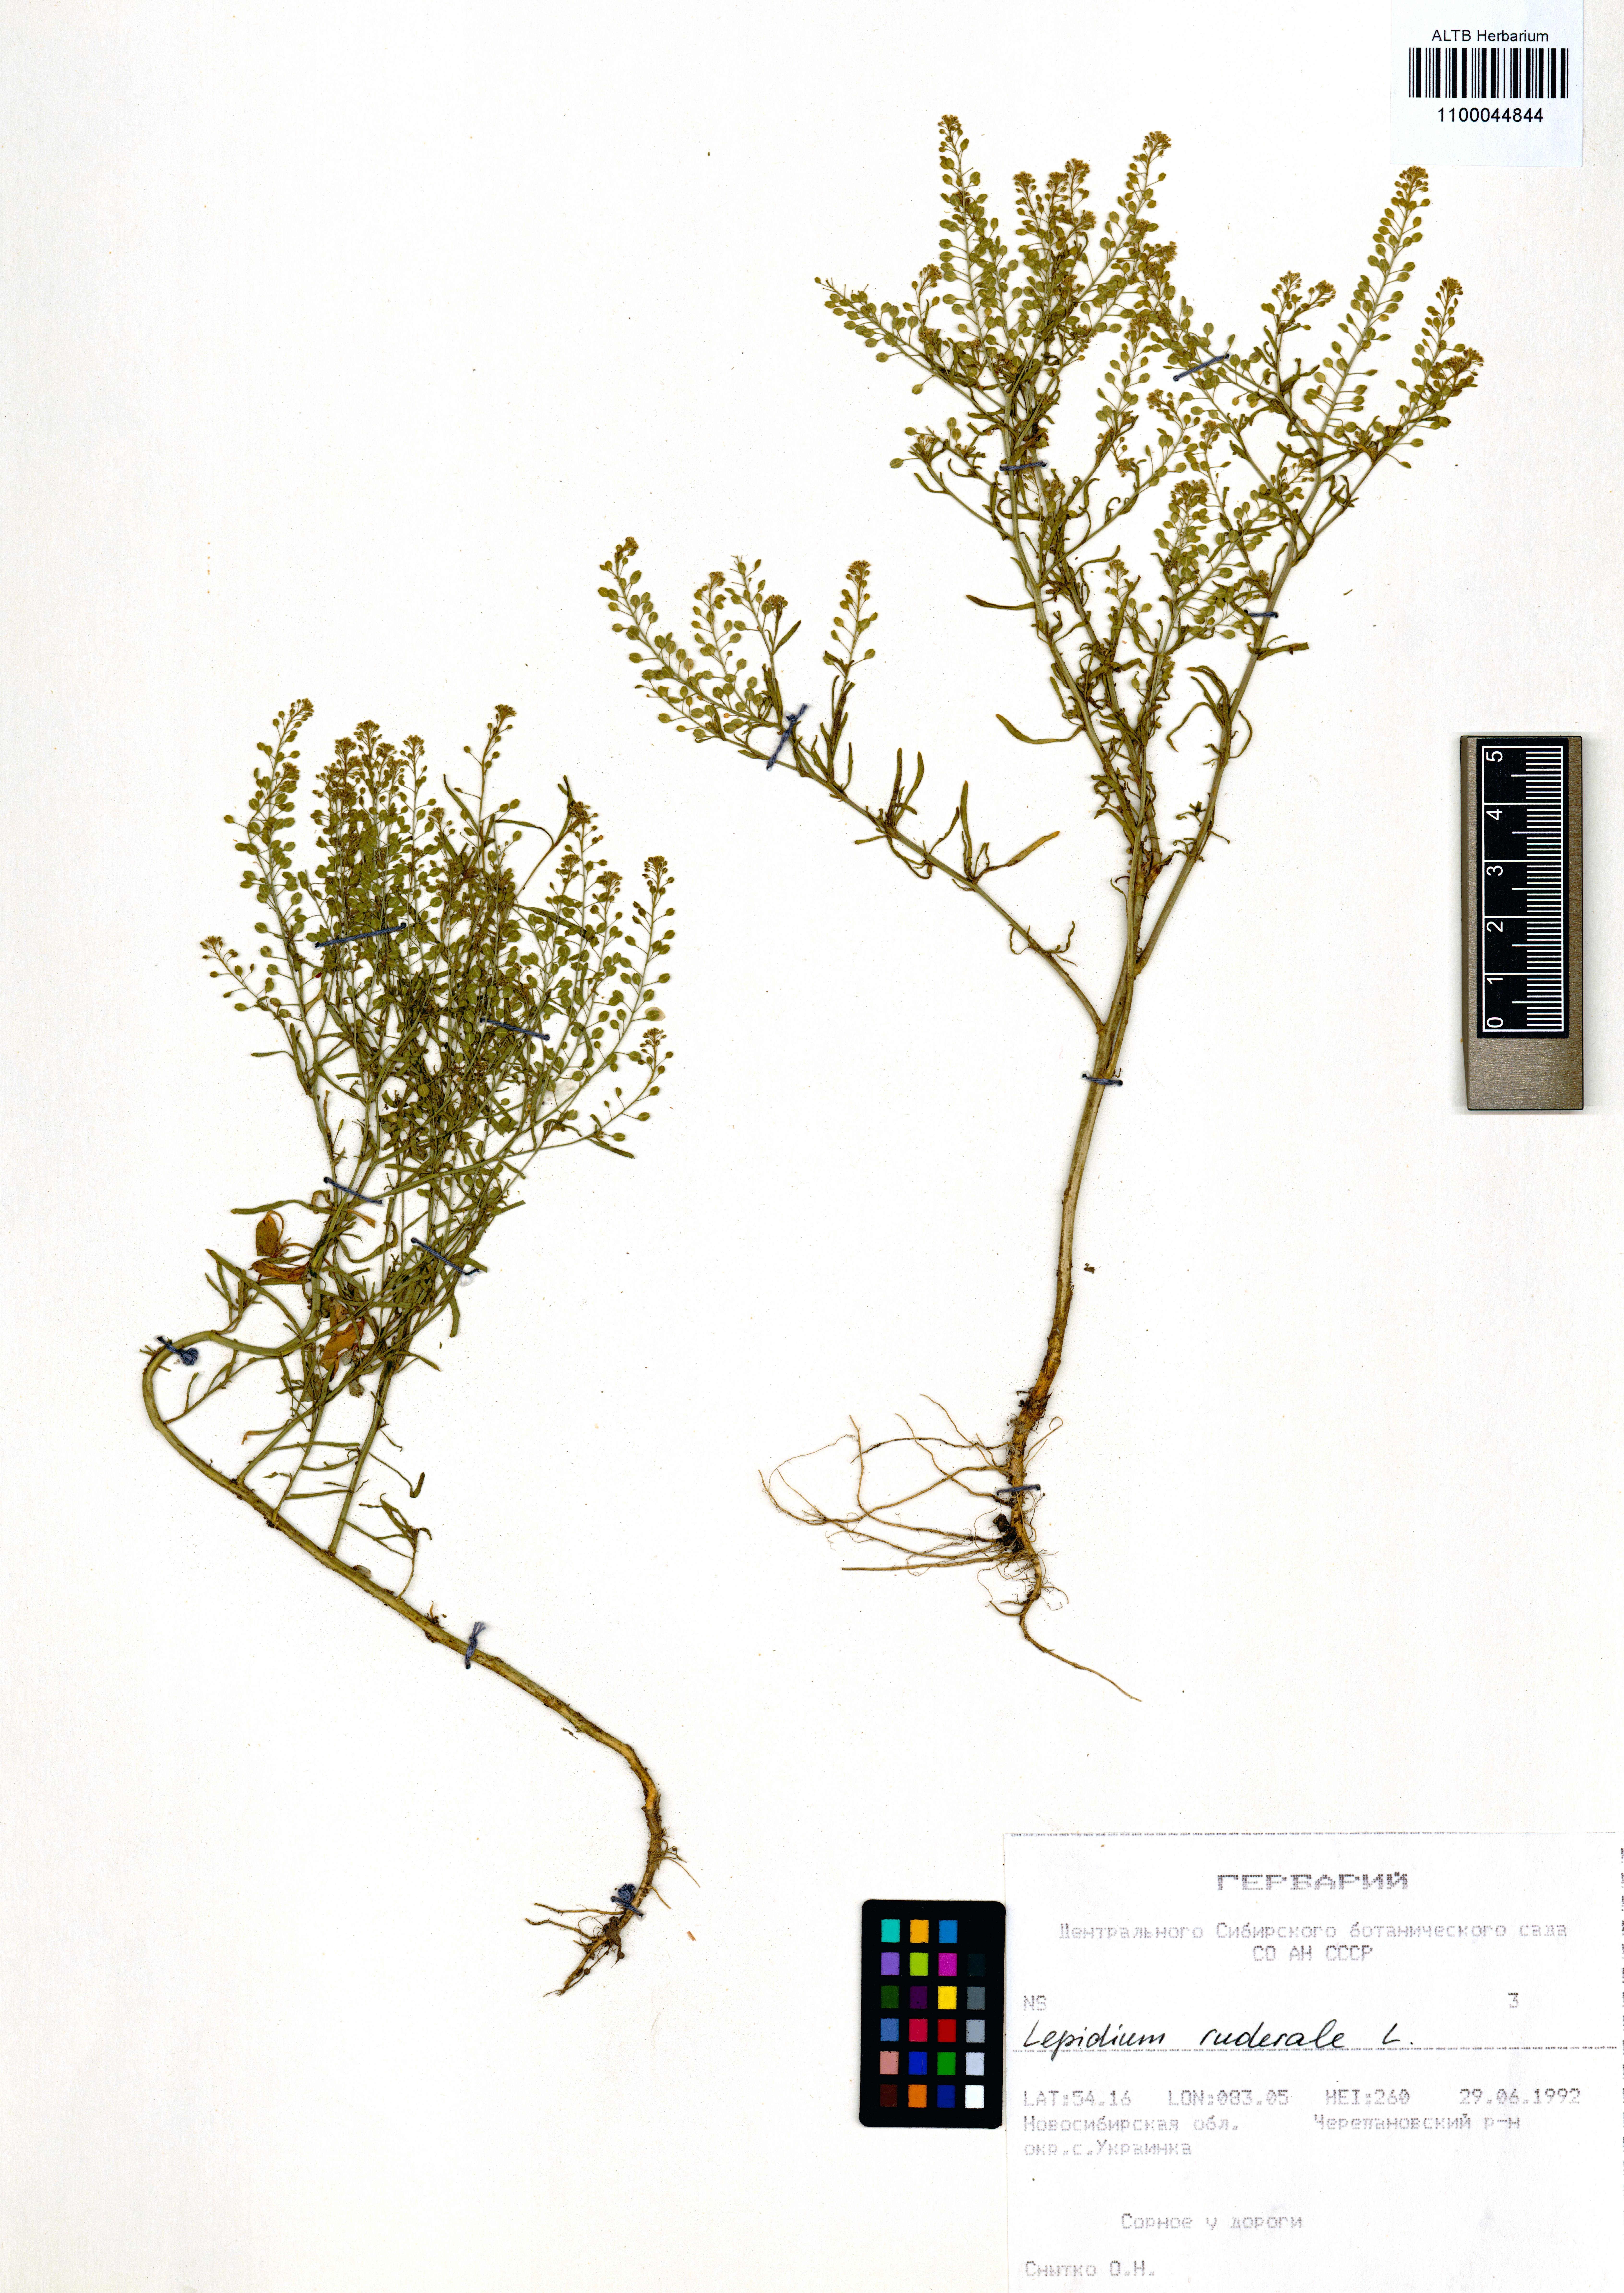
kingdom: Plantae
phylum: Tracheophyta
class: Magnoliopsida
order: Brassicales
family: Brassicaceae
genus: Lepidium
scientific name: Lepidium ruderale
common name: Narrow-leaved pepperwort
